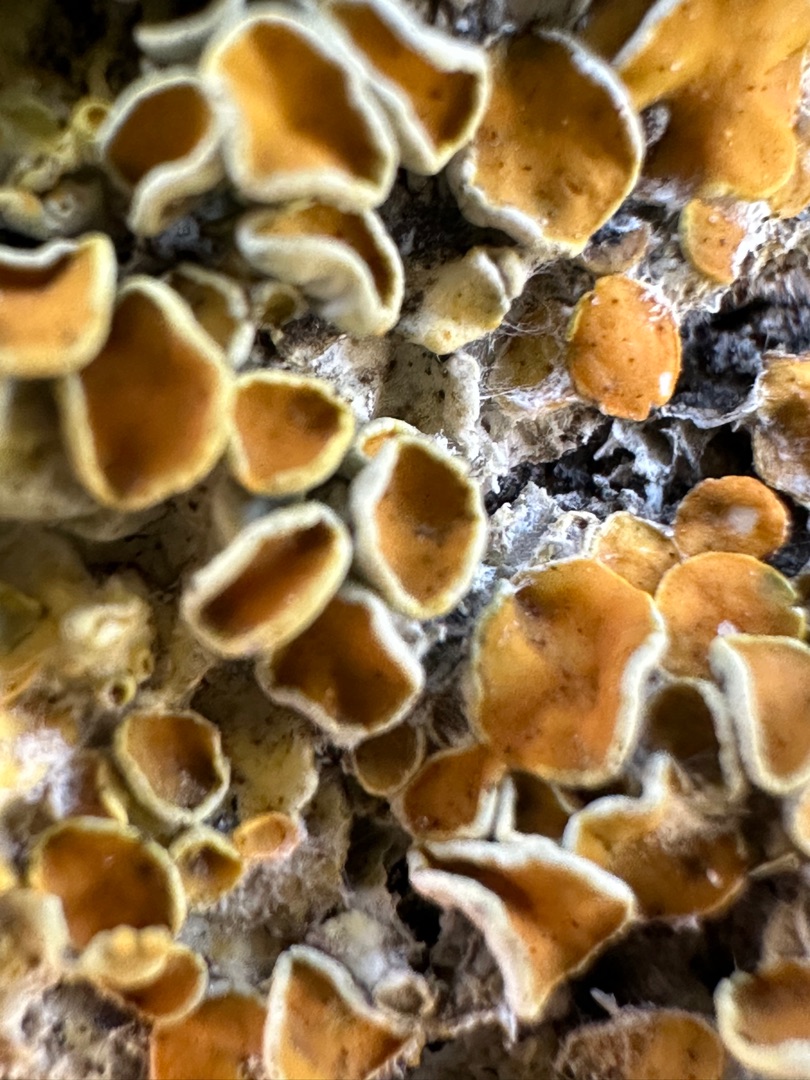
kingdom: Fungi
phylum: Ascomycota
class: Lecanoromycetes
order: Teloschistales
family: Teloschistaceae
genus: Xanthoria
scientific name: Xanthoria parietina
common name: Almindelig væggelav
